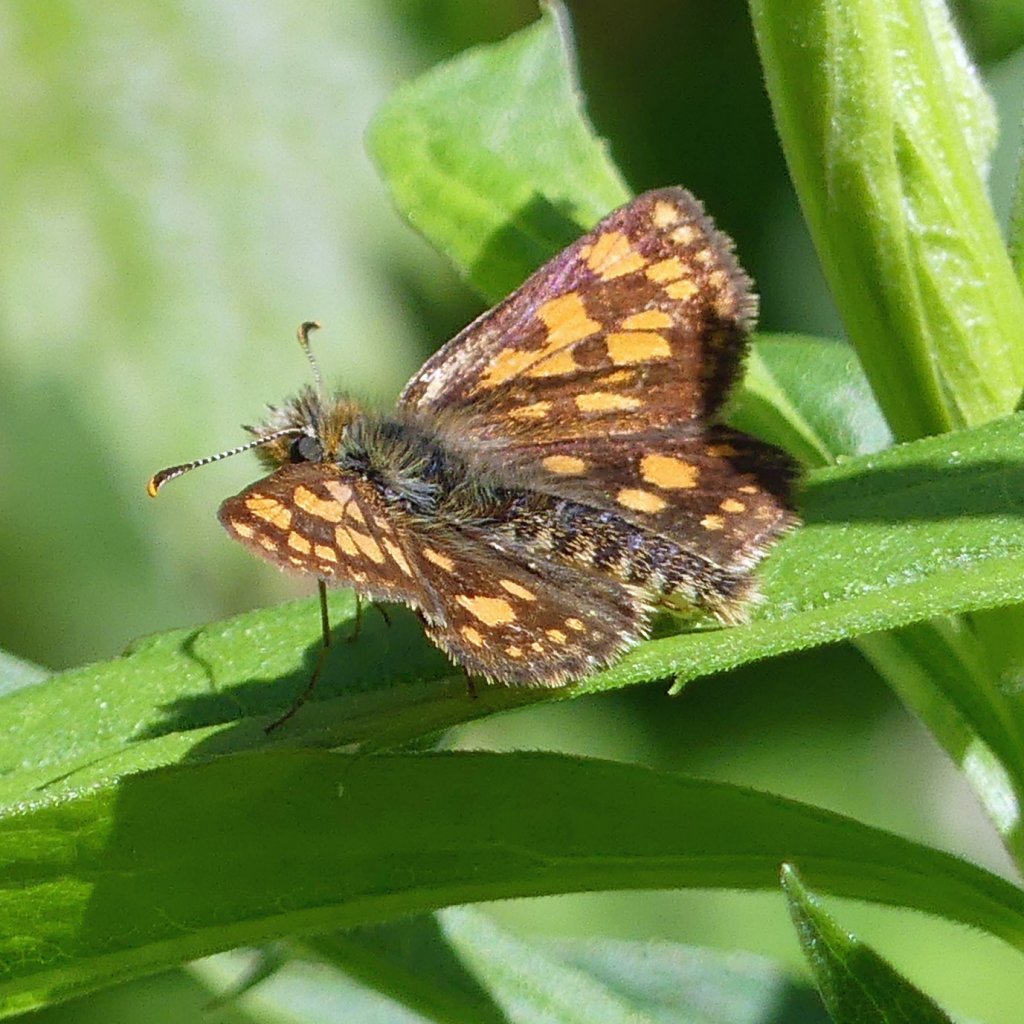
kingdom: Animalia
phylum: Arthropoda
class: Insecta
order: Lepidoptera
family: Hesperiidae
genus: Carterocephalus
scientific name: Carterocephalus palaemon
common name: Chequered Skipper
